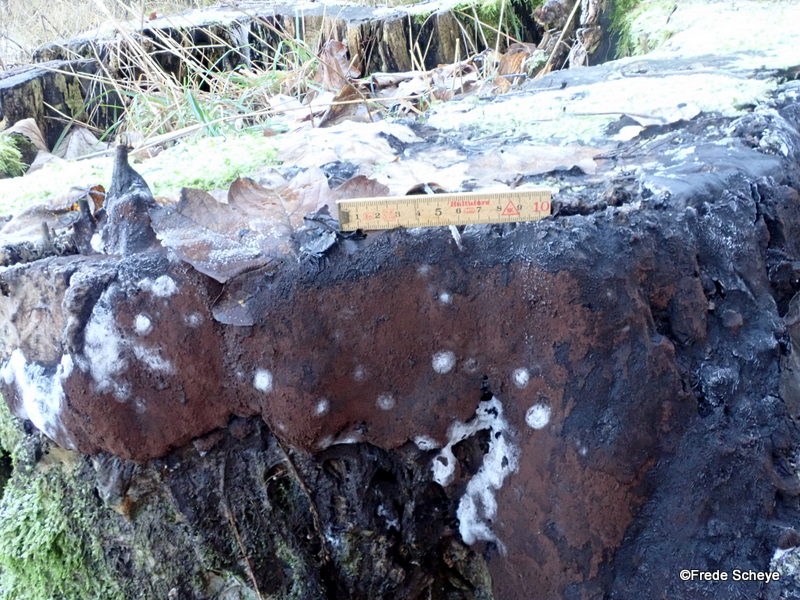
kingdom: Protozoa
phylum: Mycetozoa
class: Myxomycetes
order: Stemonitidales
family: Stemonitidaceae
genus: Brefeldia
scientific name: Brefeldia maxima
